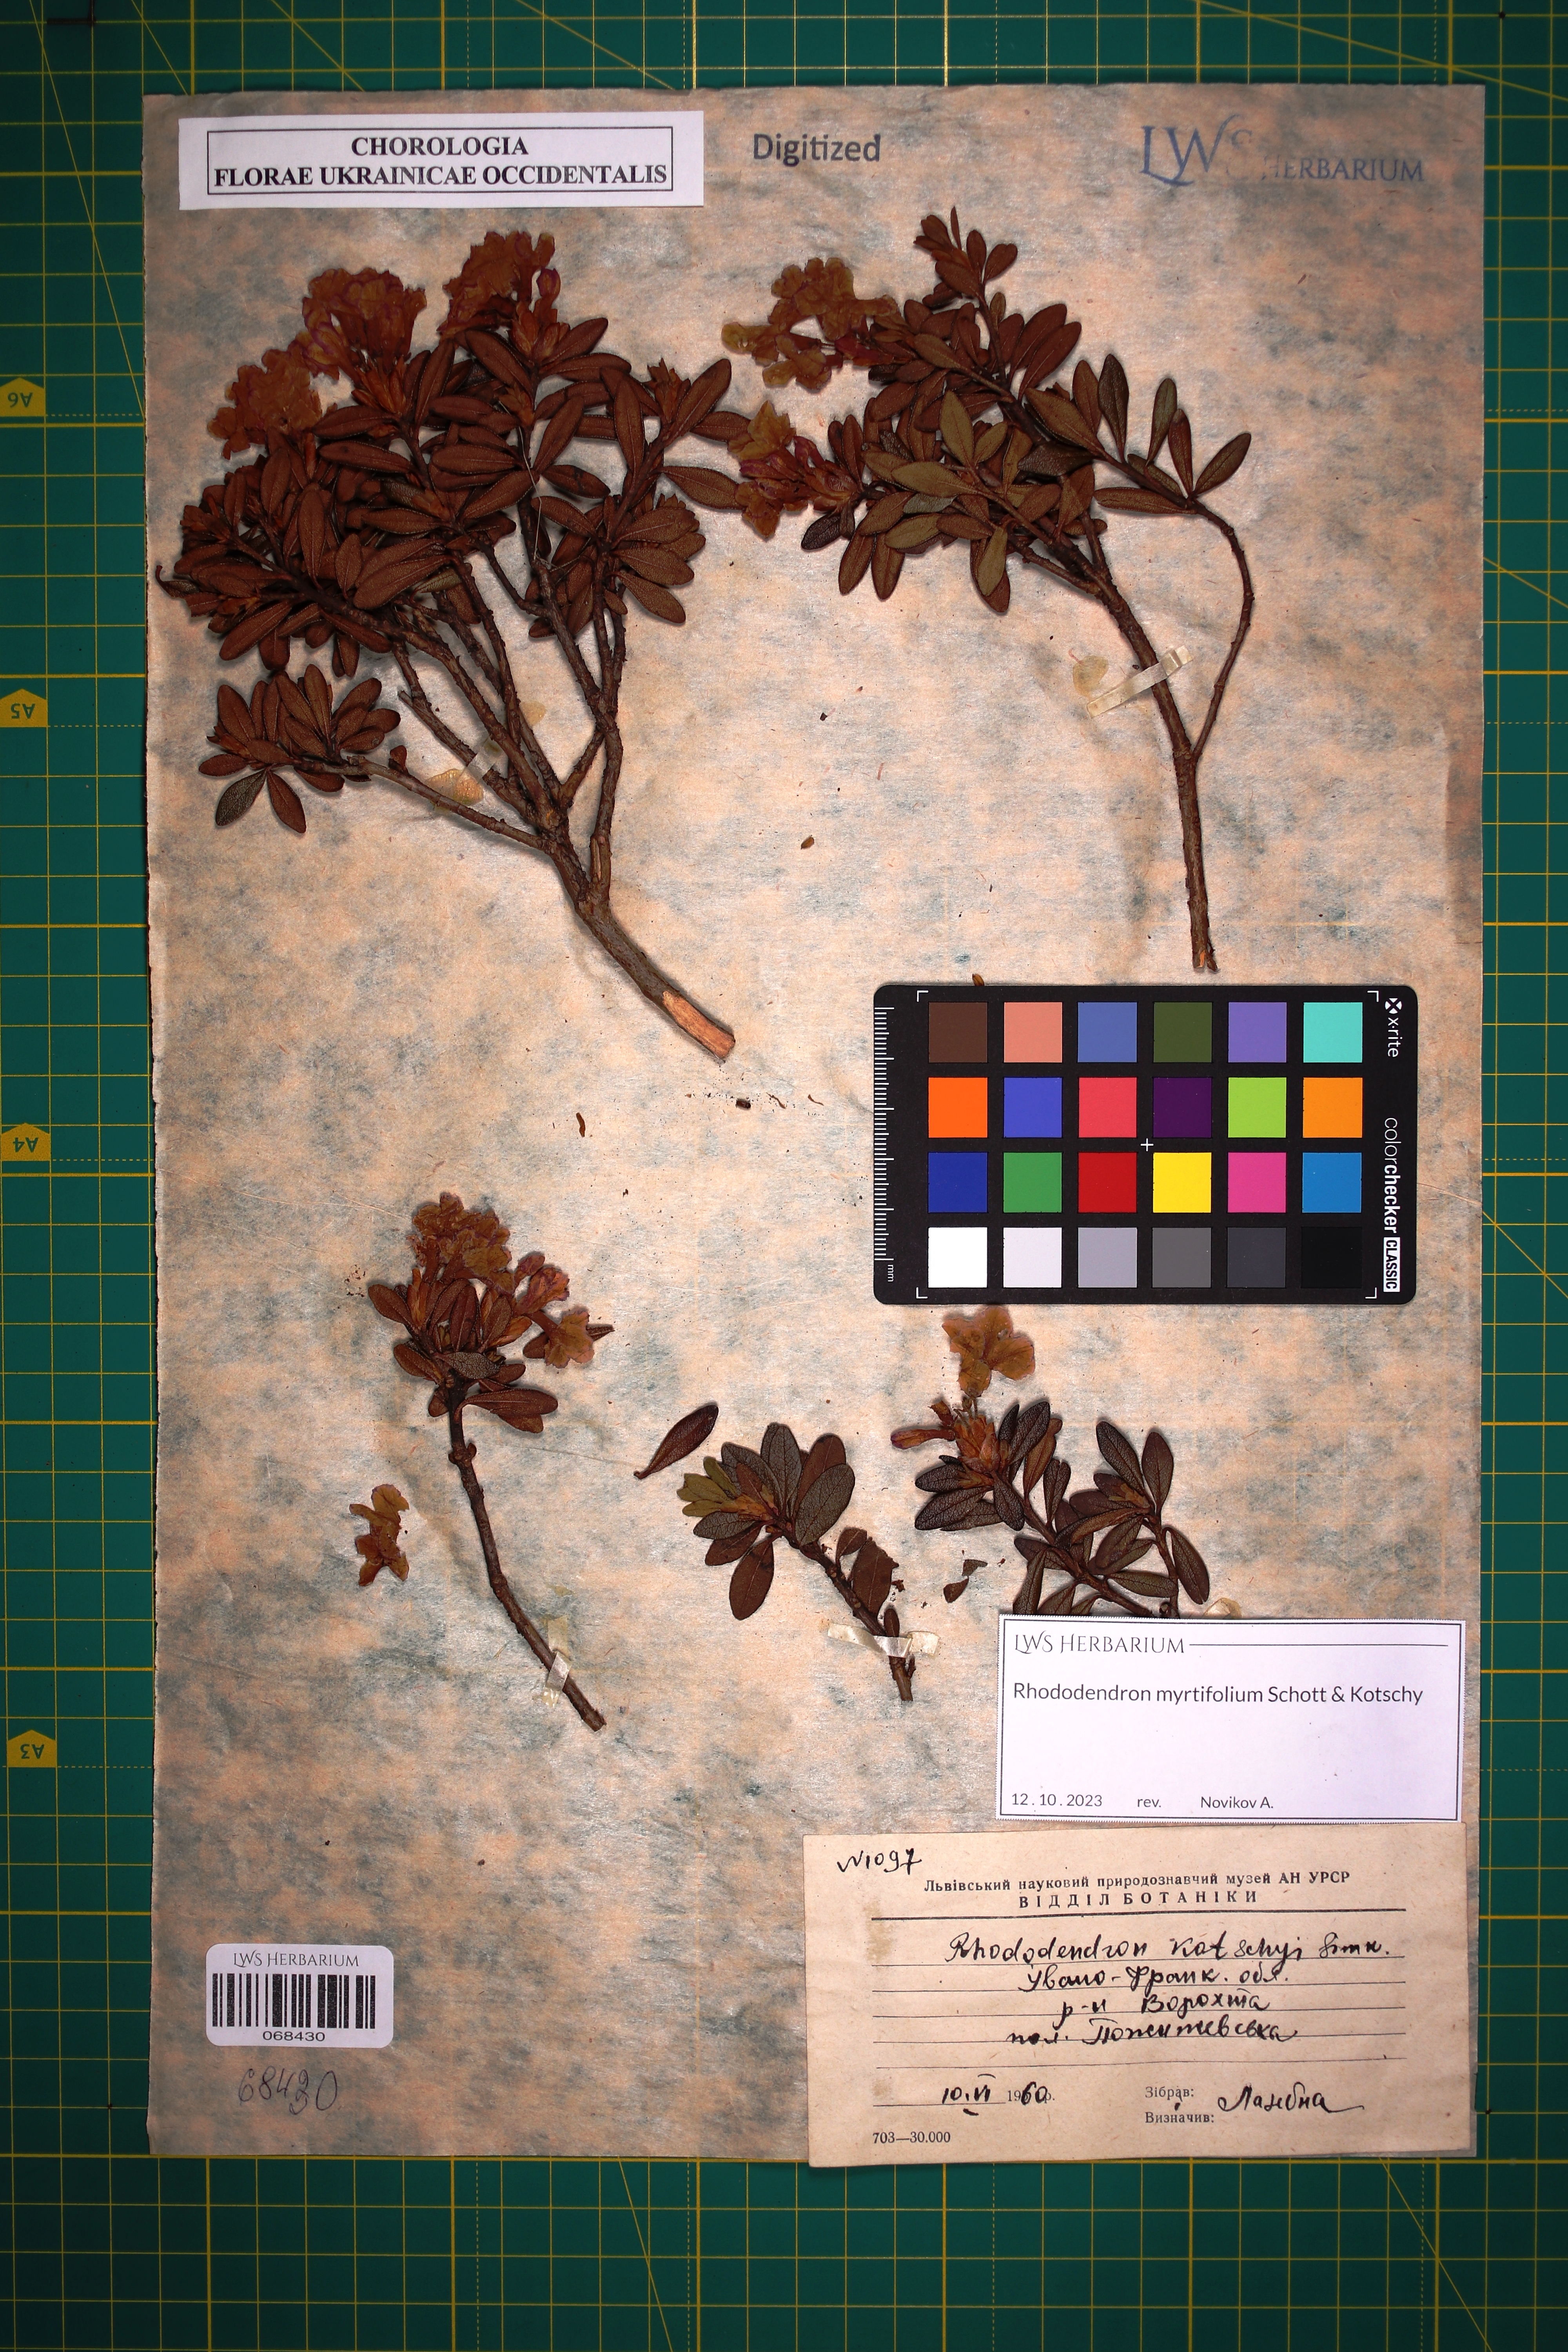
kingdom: Plantae
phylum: Tracheophyta
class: Magnoliopsida
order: Ericales
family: Ericaceae
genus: Rhododendron
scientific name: Rhododendron kotschyi
